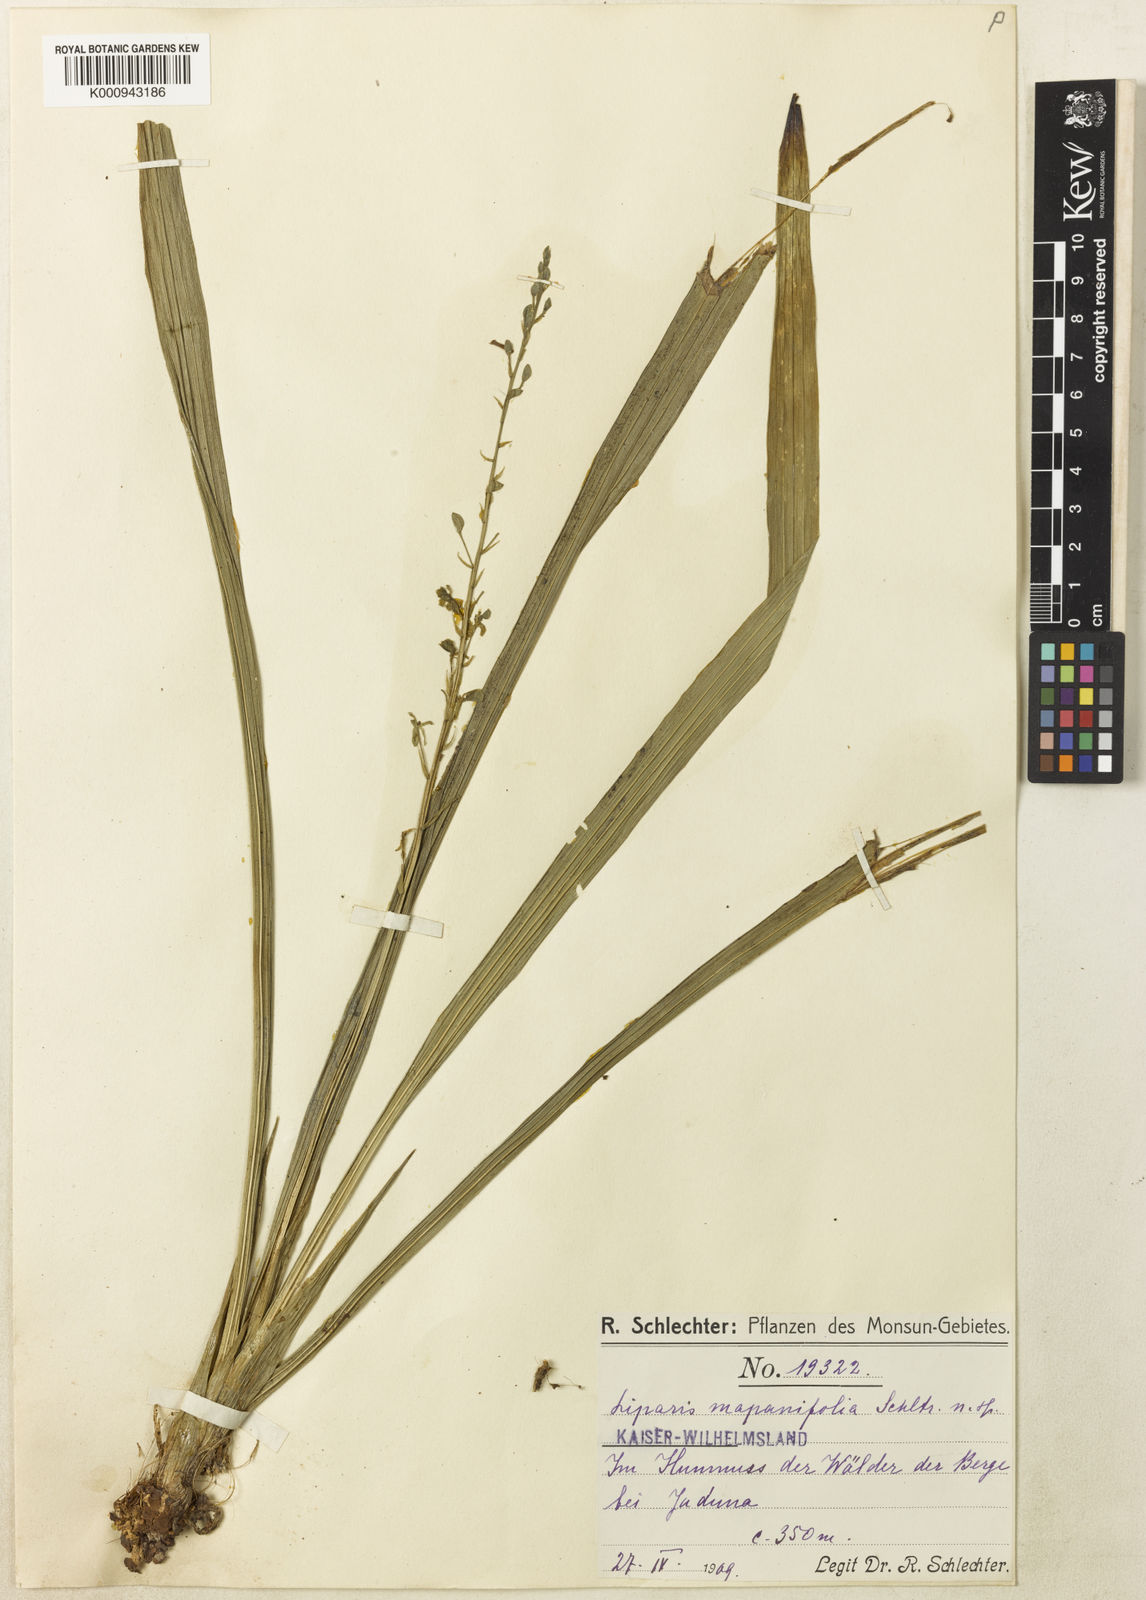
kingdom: Plantae
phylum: Tracheophyta
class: Liliopsida
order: Asparagales
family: Orchidaceae
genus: Liparis
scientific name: Liparis cymbidiifolia
